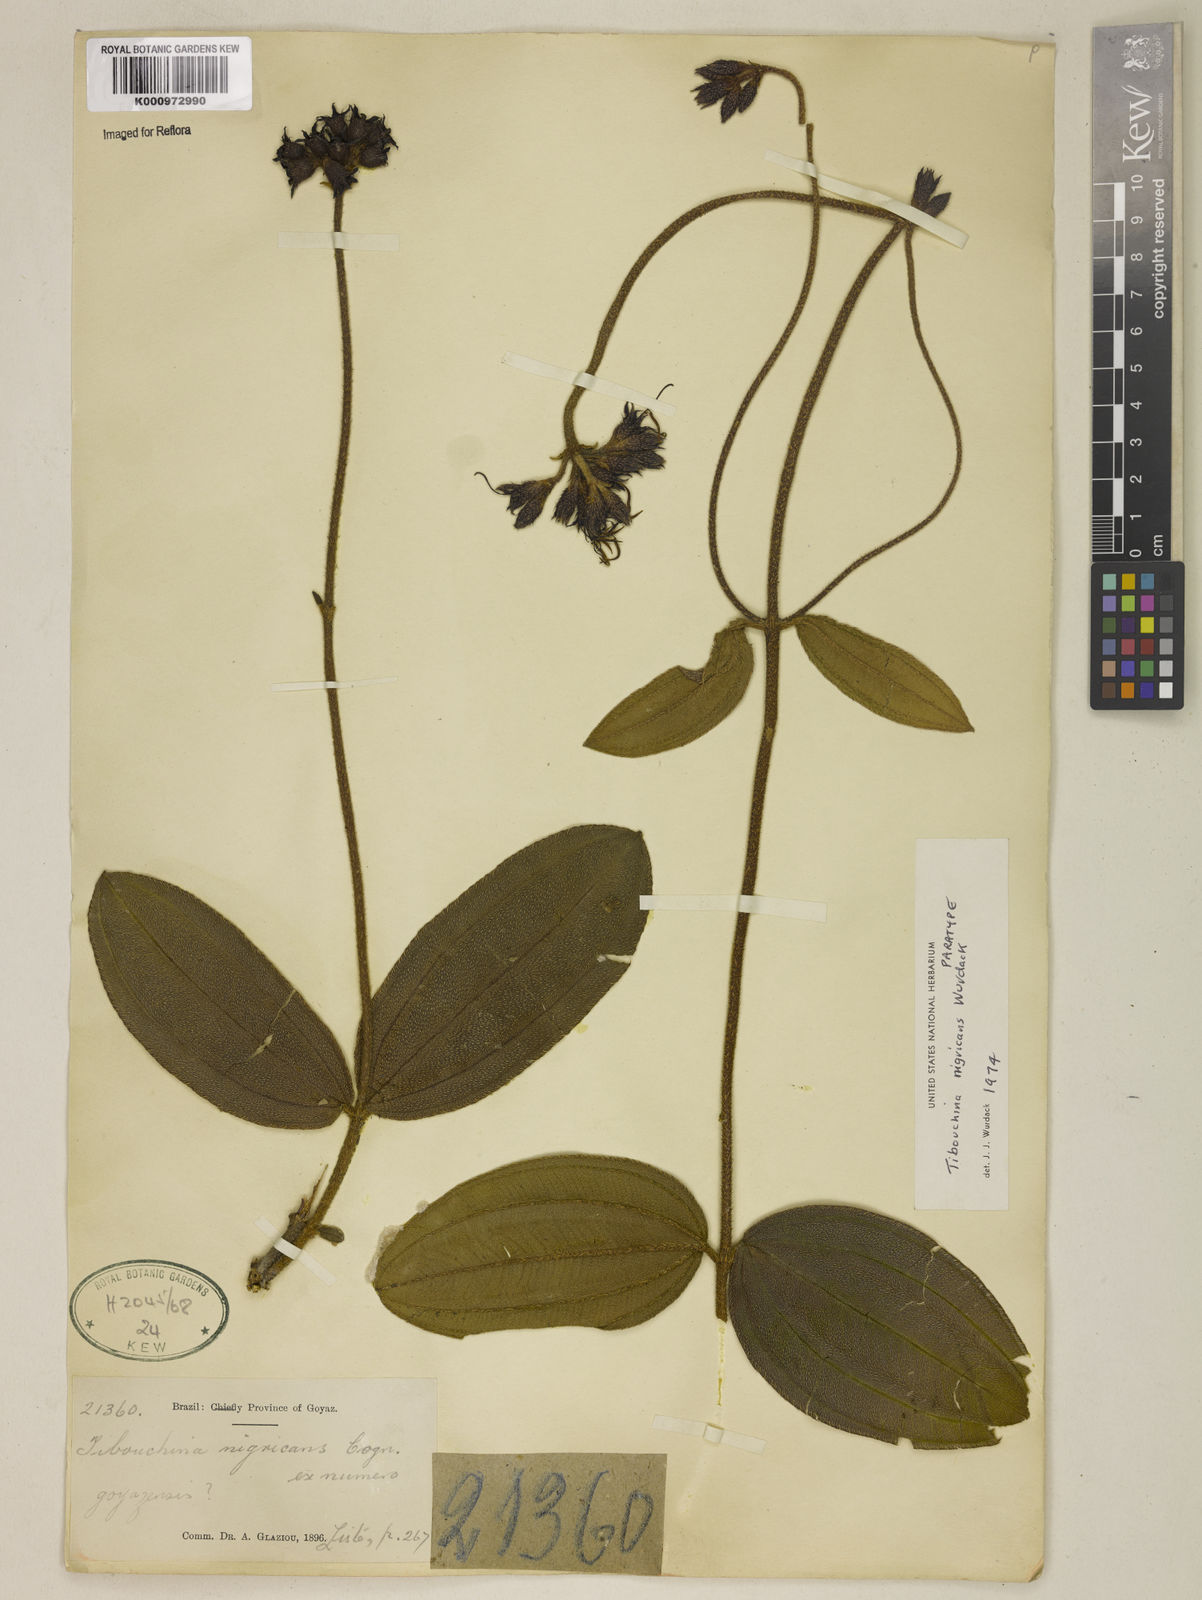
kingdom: Plantae
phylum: Tracheophyta
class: Magnoliopsida
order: Myrtales
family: Melastomataceae
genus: Tibouchina
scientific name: Tibouchina
